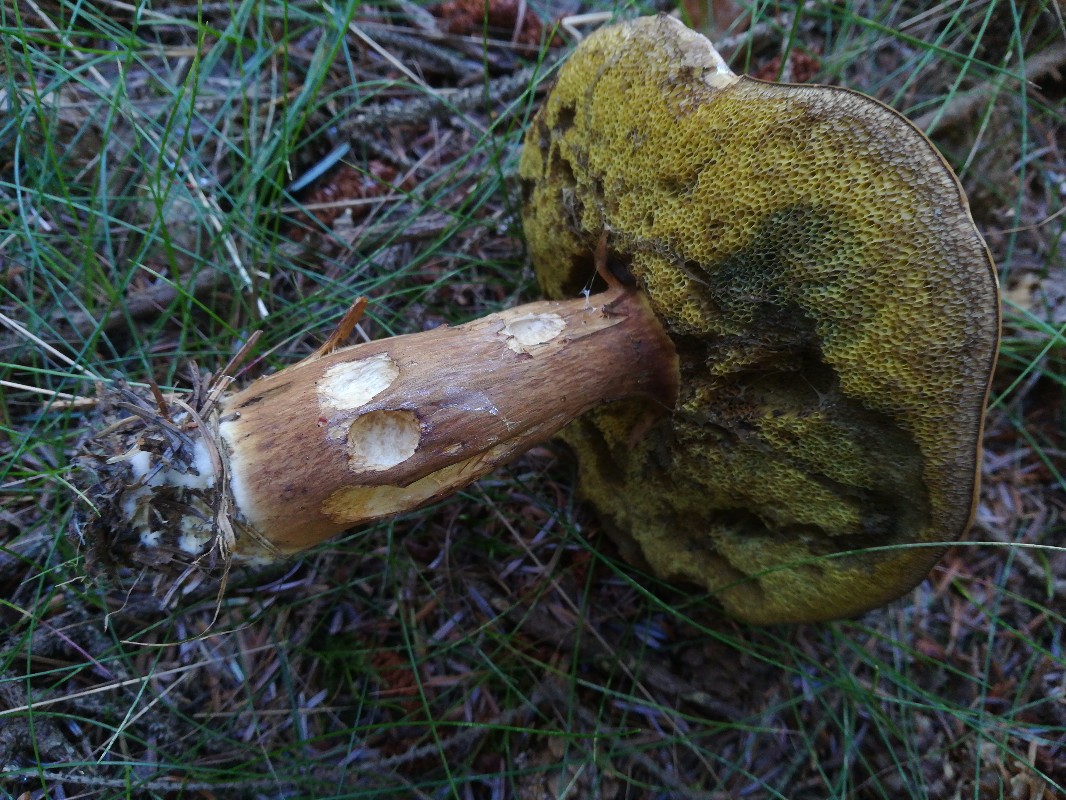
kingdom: Fungi
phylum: Basidiomycota
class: Agaricomycetes
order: Boletales
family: Boletaceae
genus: Imleria
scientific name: Imleria badia
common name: brunstokket rørhat
